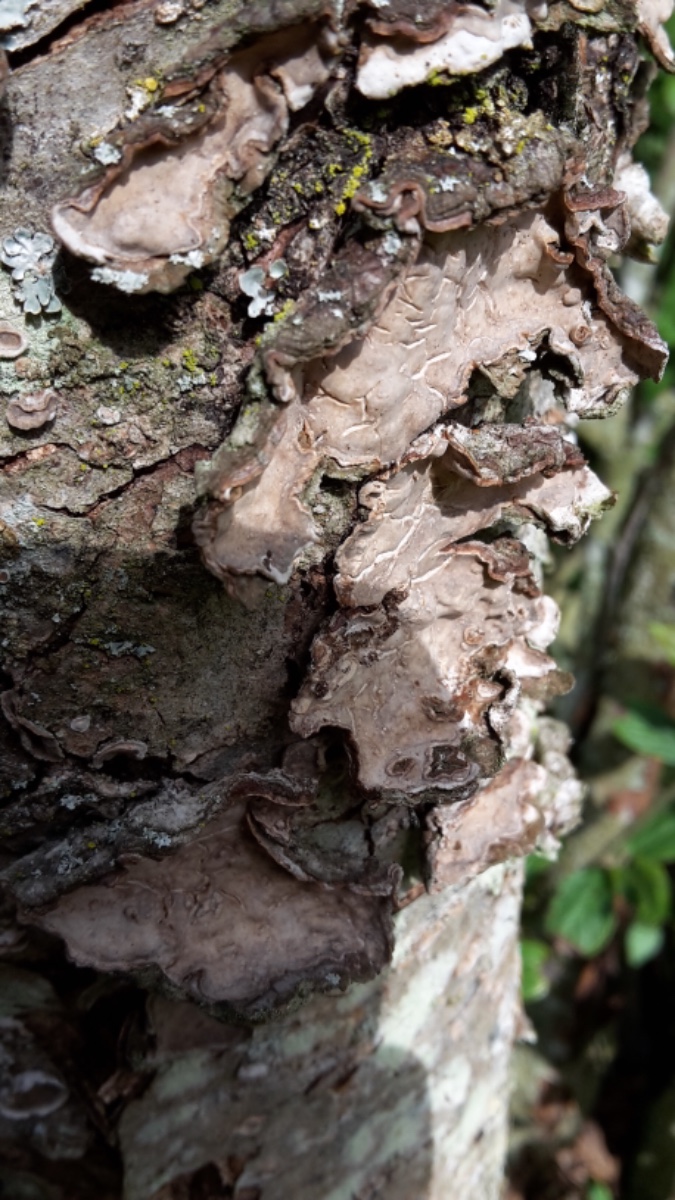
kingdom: Fungi
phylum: Basidiomycota
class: Agaricomycetes
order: Russulales
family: Stereaceae
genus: Stereum
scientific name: Stereum rugosum
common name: rynket lædersvamp
